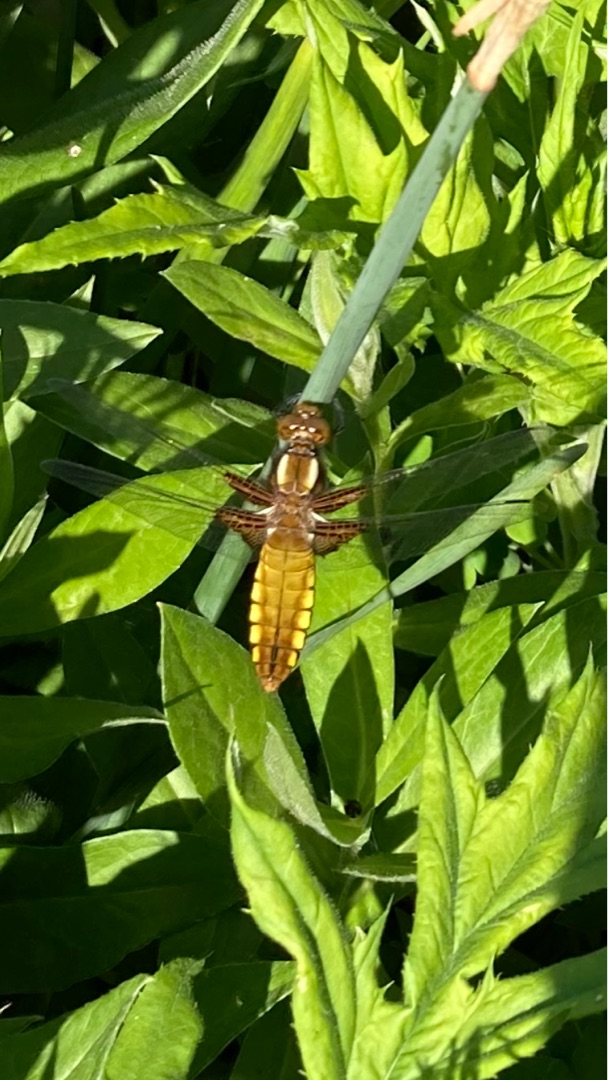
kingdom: Animalia
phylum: Arthropoda
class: Insecta
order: Odonata
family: Libellulidae
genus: Libellula
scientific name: Libellula depressa
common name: Blå libel
